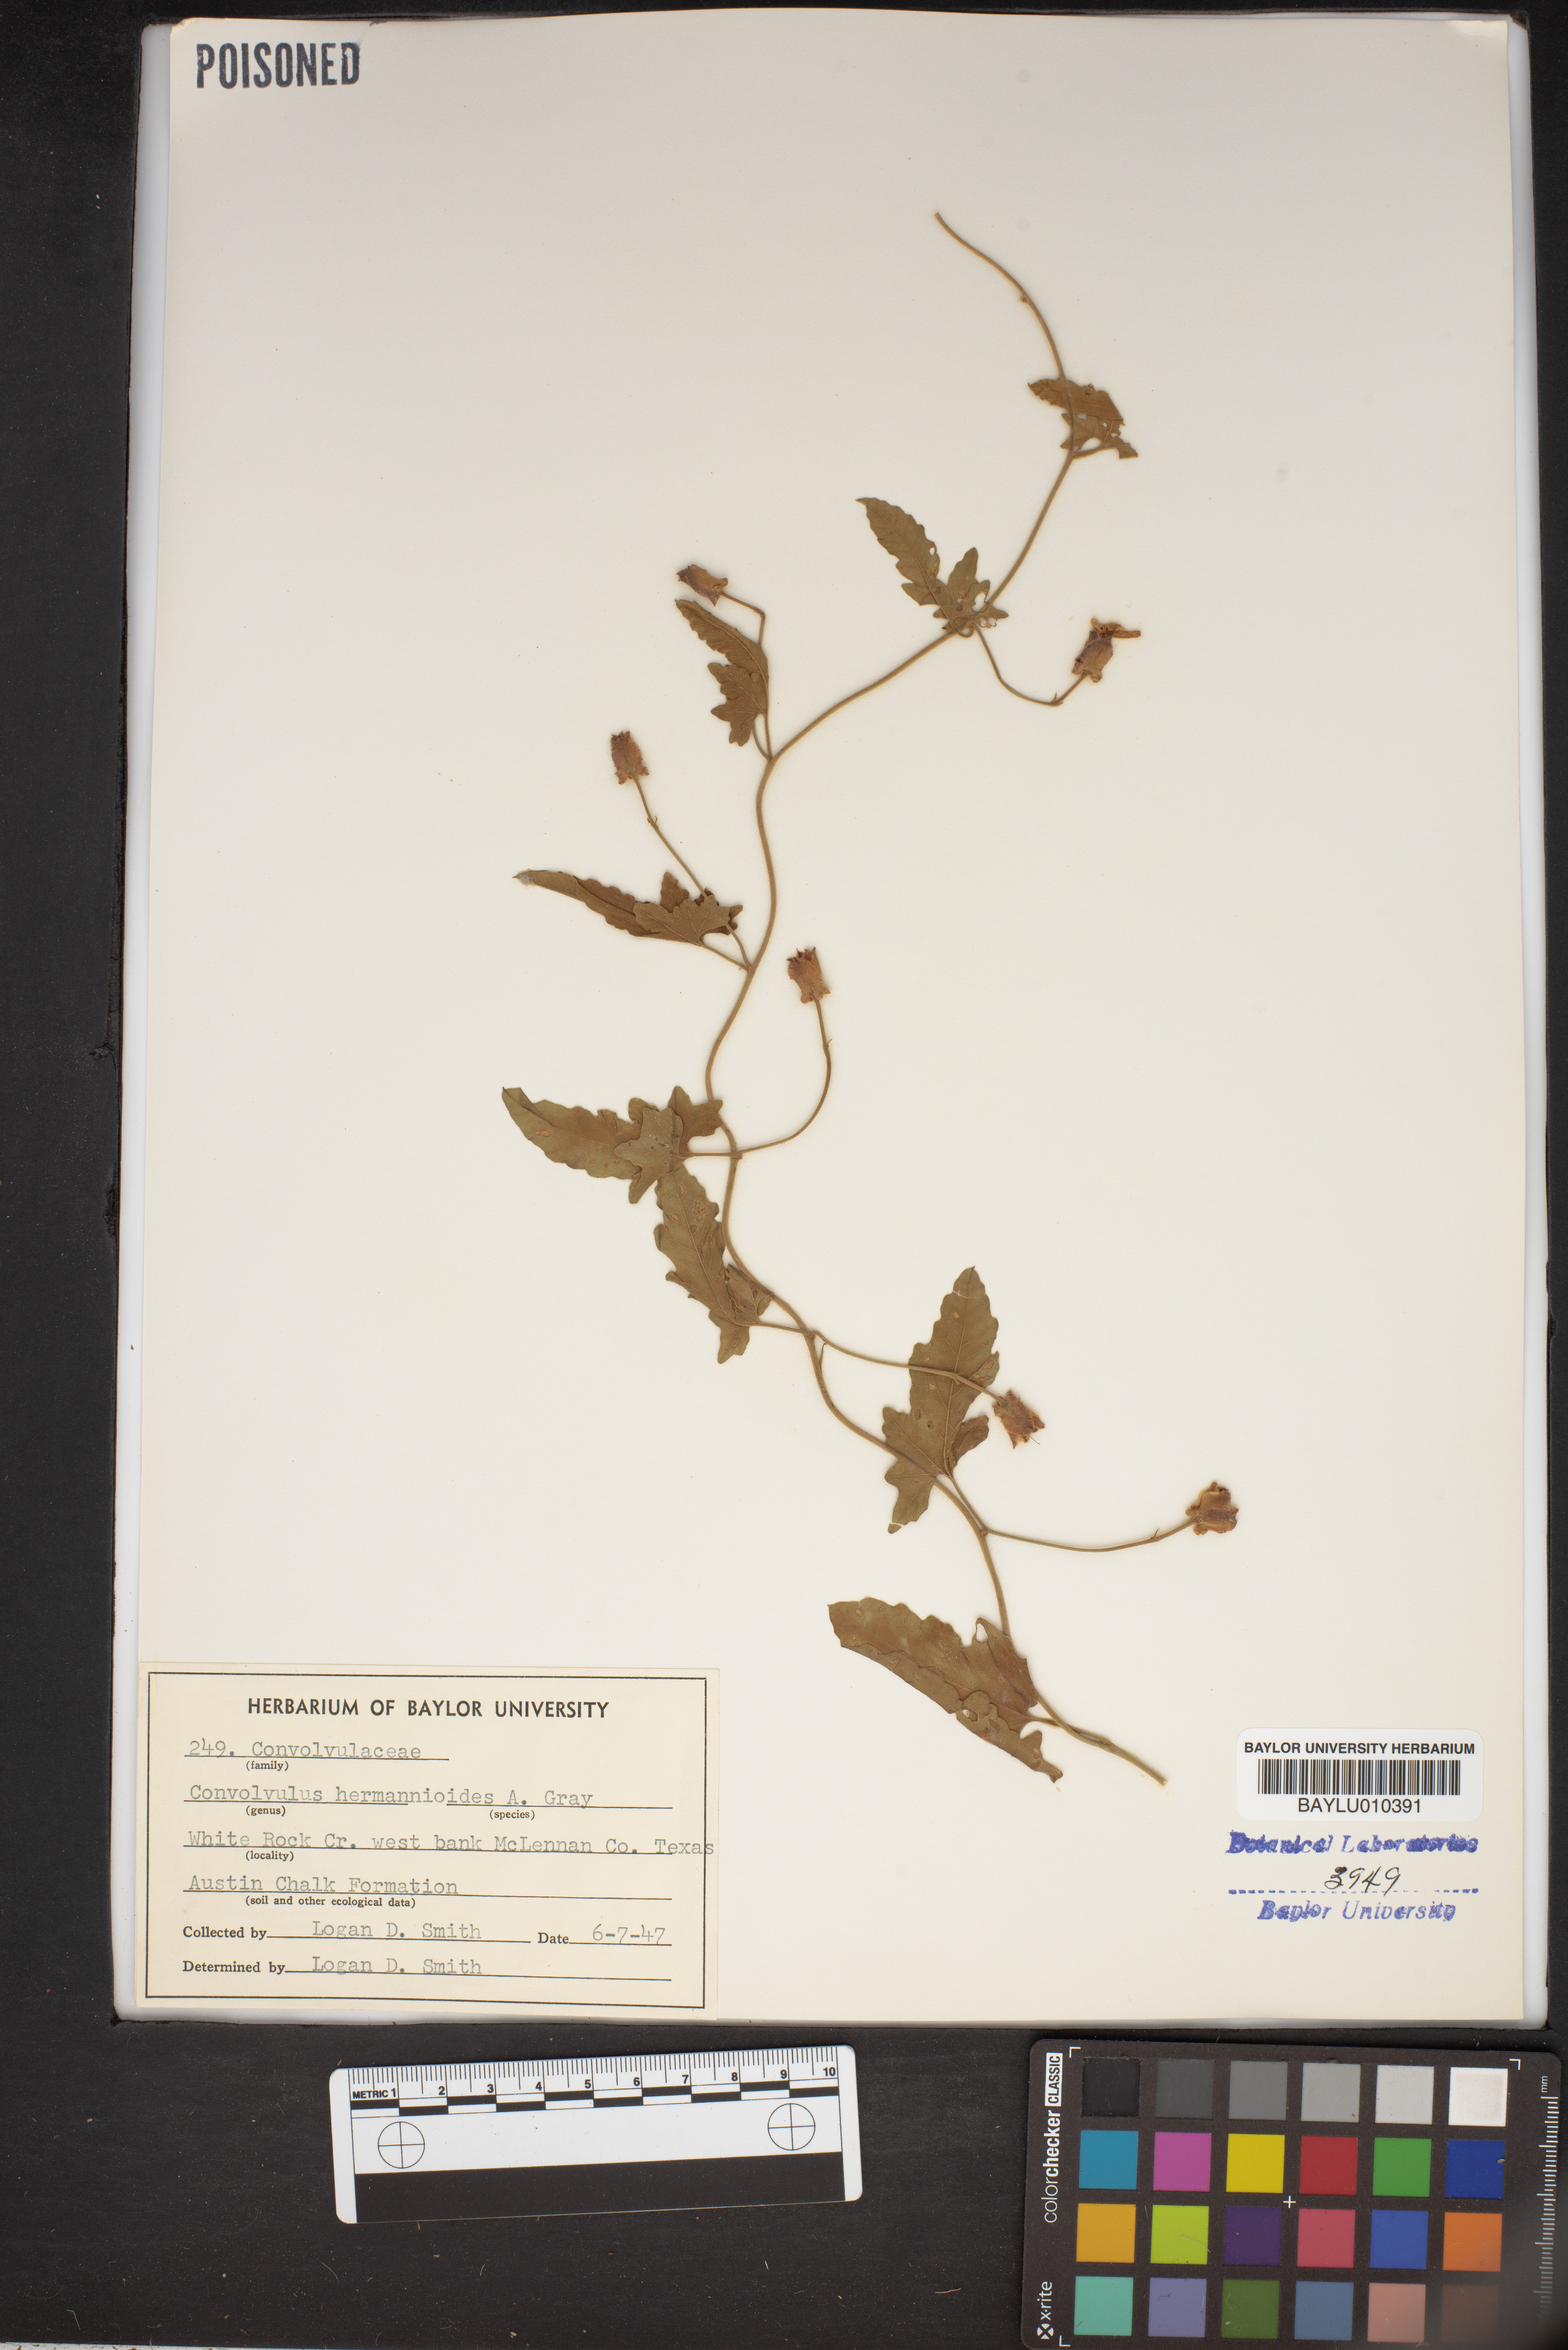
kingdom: Plantae
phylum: Tracheophyta
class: Magnoliopsida
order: Solanales
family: Convolvulaceae
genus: Convolvulus
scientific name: Convolvulus equitans
